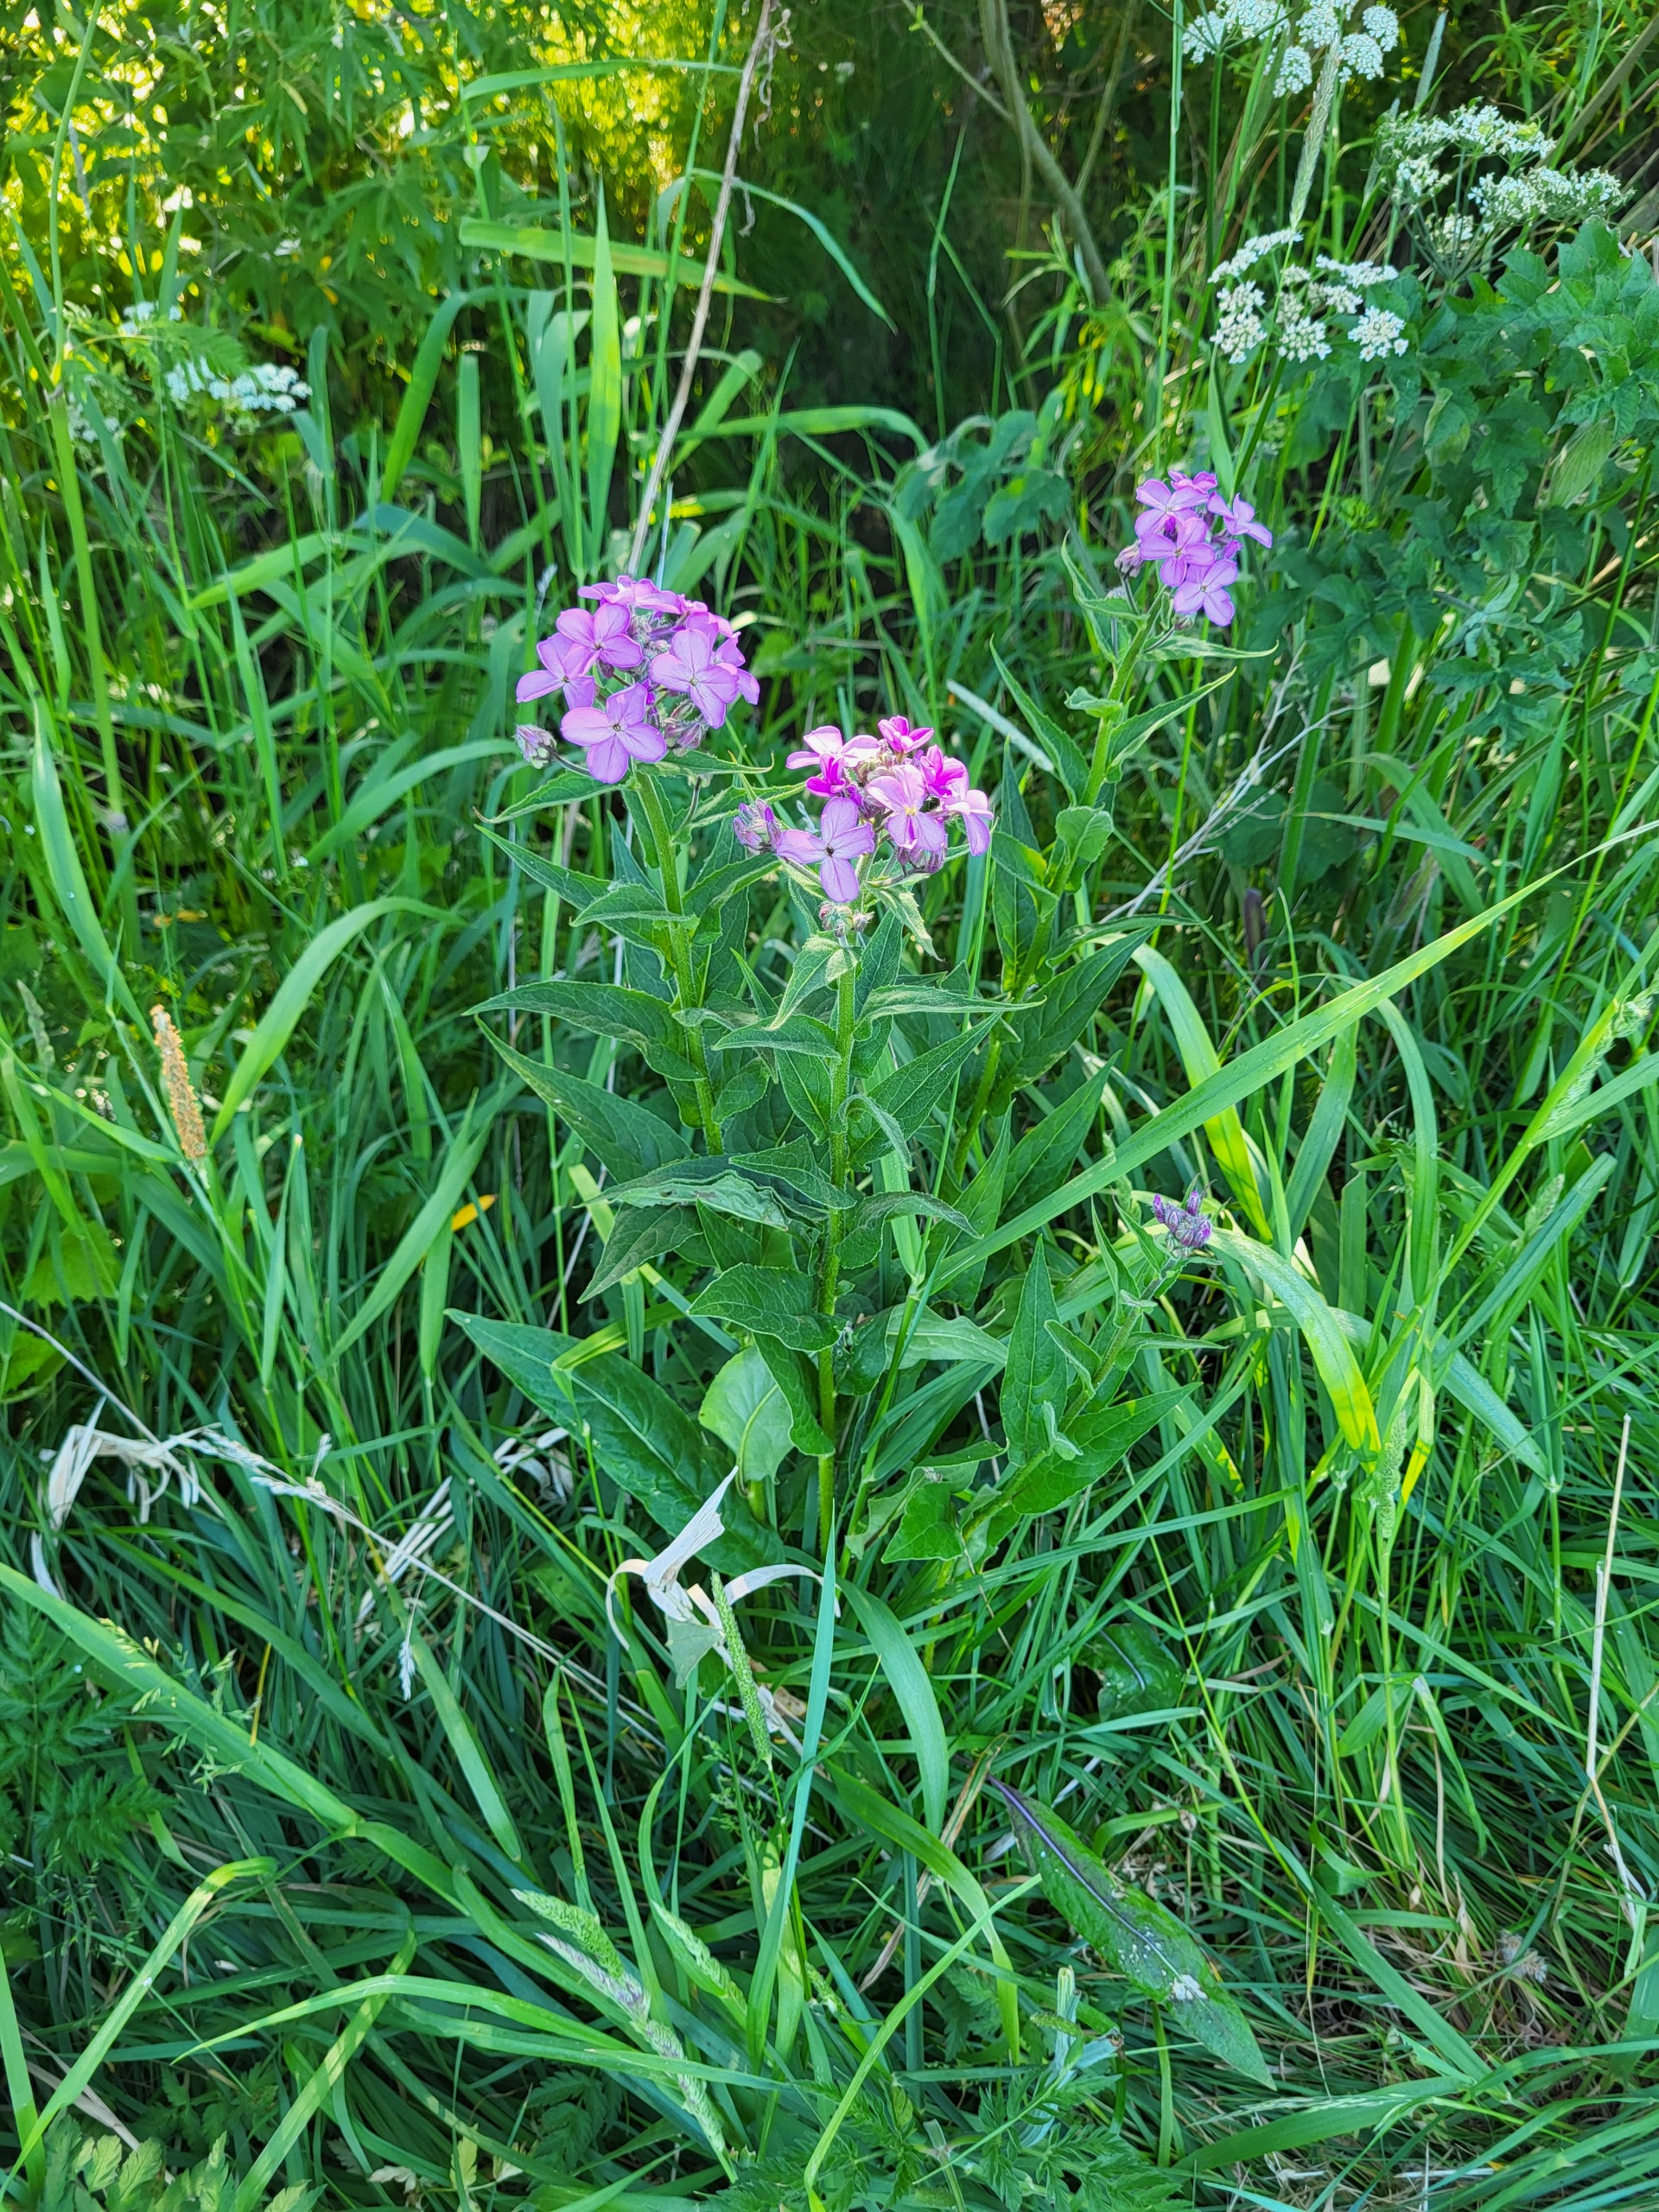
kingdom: Plantae
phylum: Tracheophyta
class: Magnoliopsida
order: Brassicales
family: Brassicaceae
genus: Hesperis
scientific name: Hesperis matronalis
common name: Aftenstjerne
